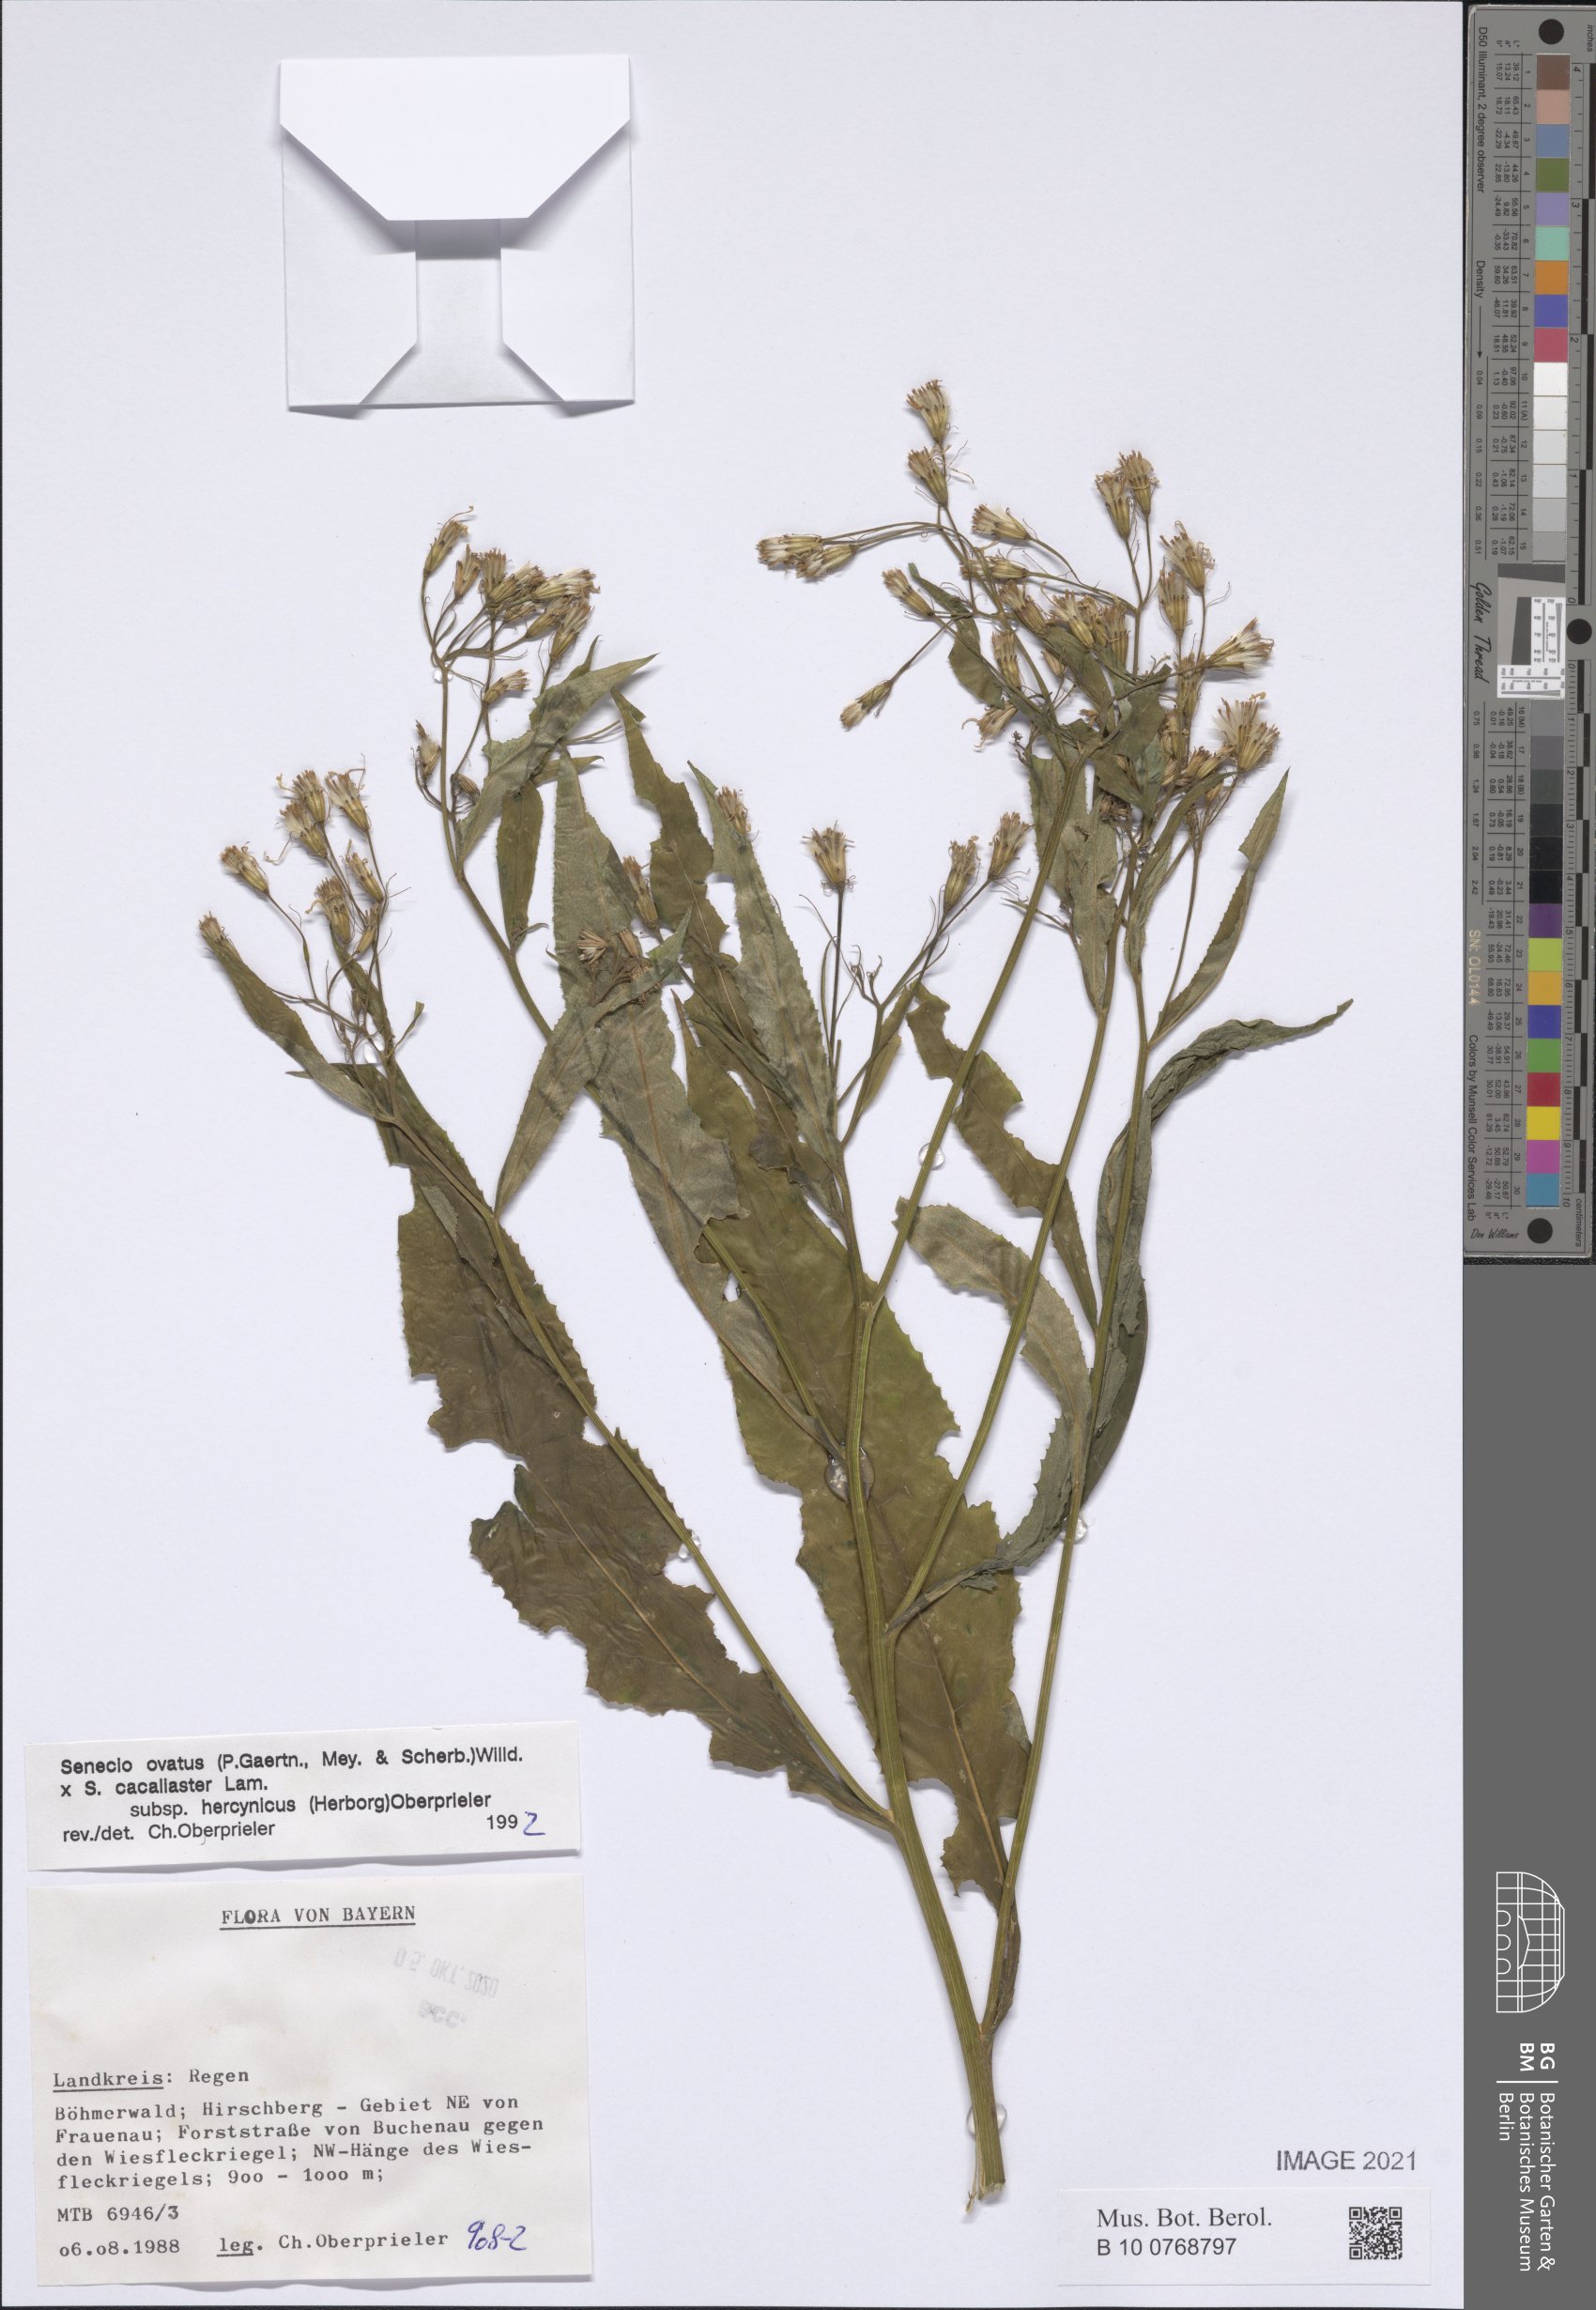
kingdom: Plantae
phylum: Tracheophyta
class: Magnoliopsida
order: Asterales
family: Asteraceae
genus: Senecio
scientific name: Senecio ovatus
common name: Wood ragwort
